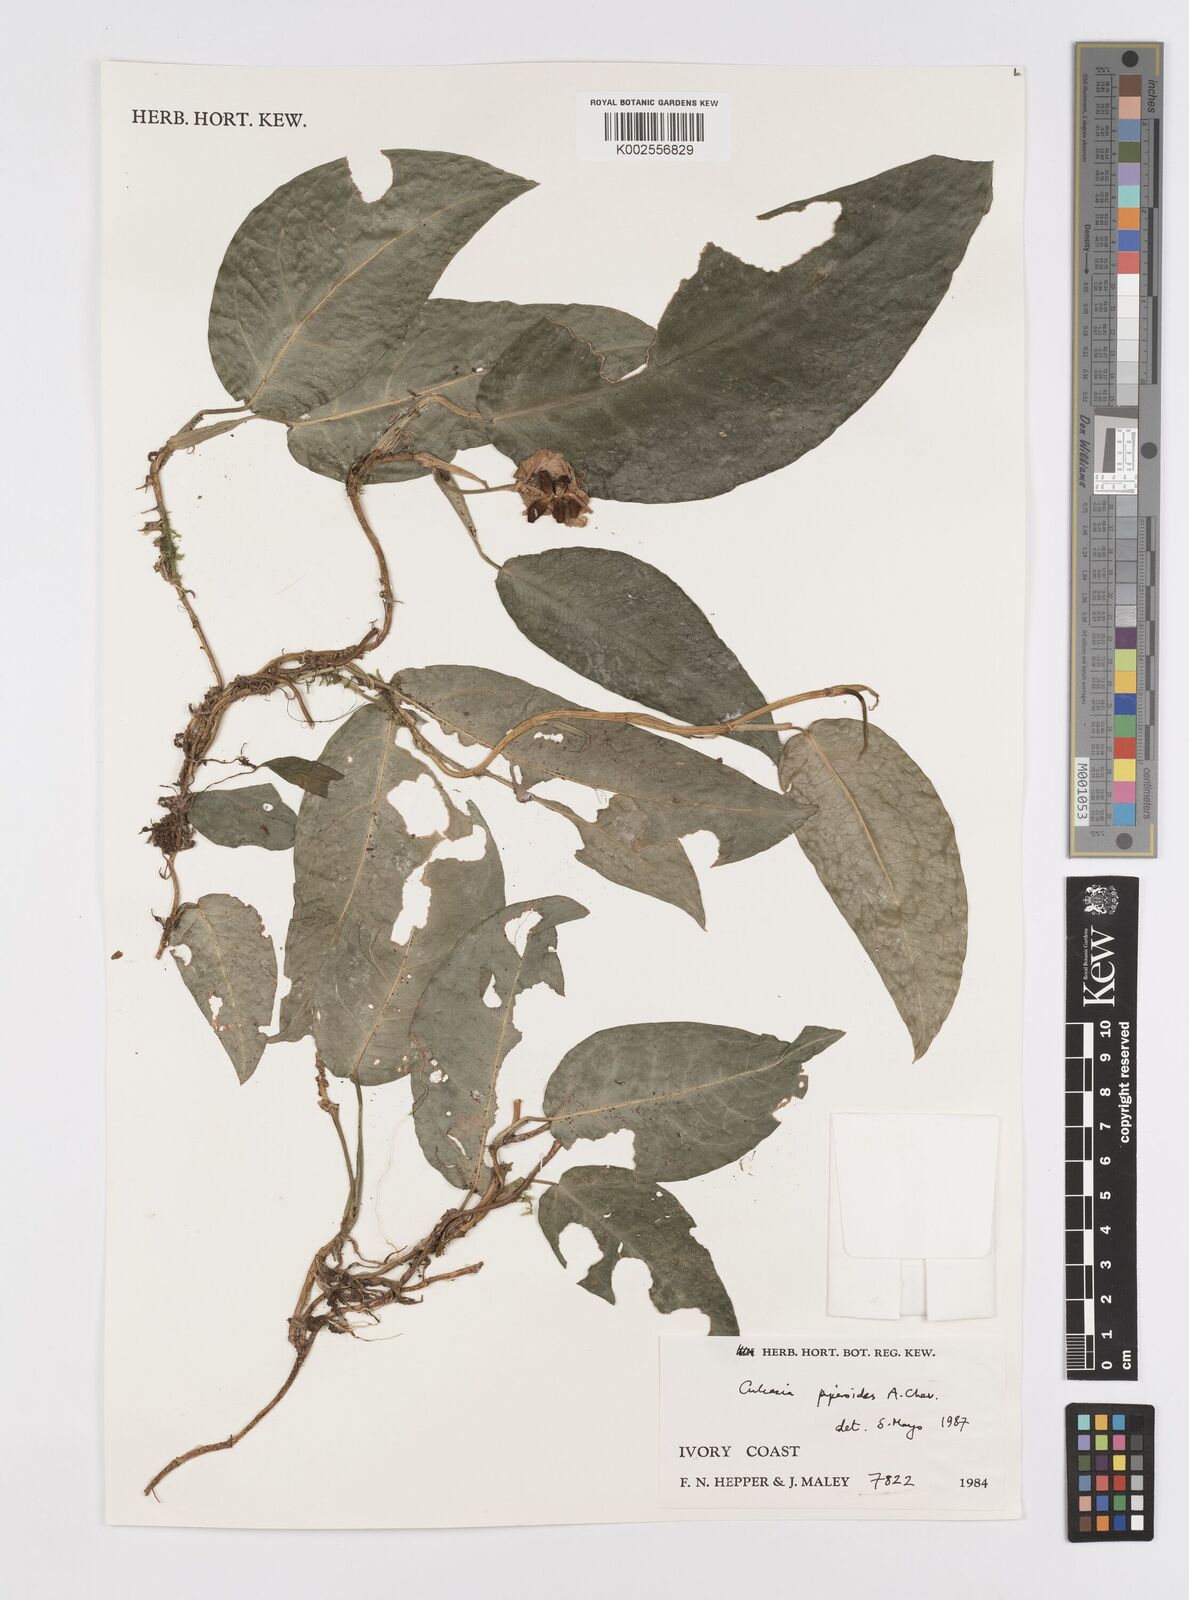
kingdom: Plantae
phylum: Tracheophyta
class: Liliopsida
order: Alismatales
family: Araceae
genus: Culcasia
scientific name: Culcasia parviflora
